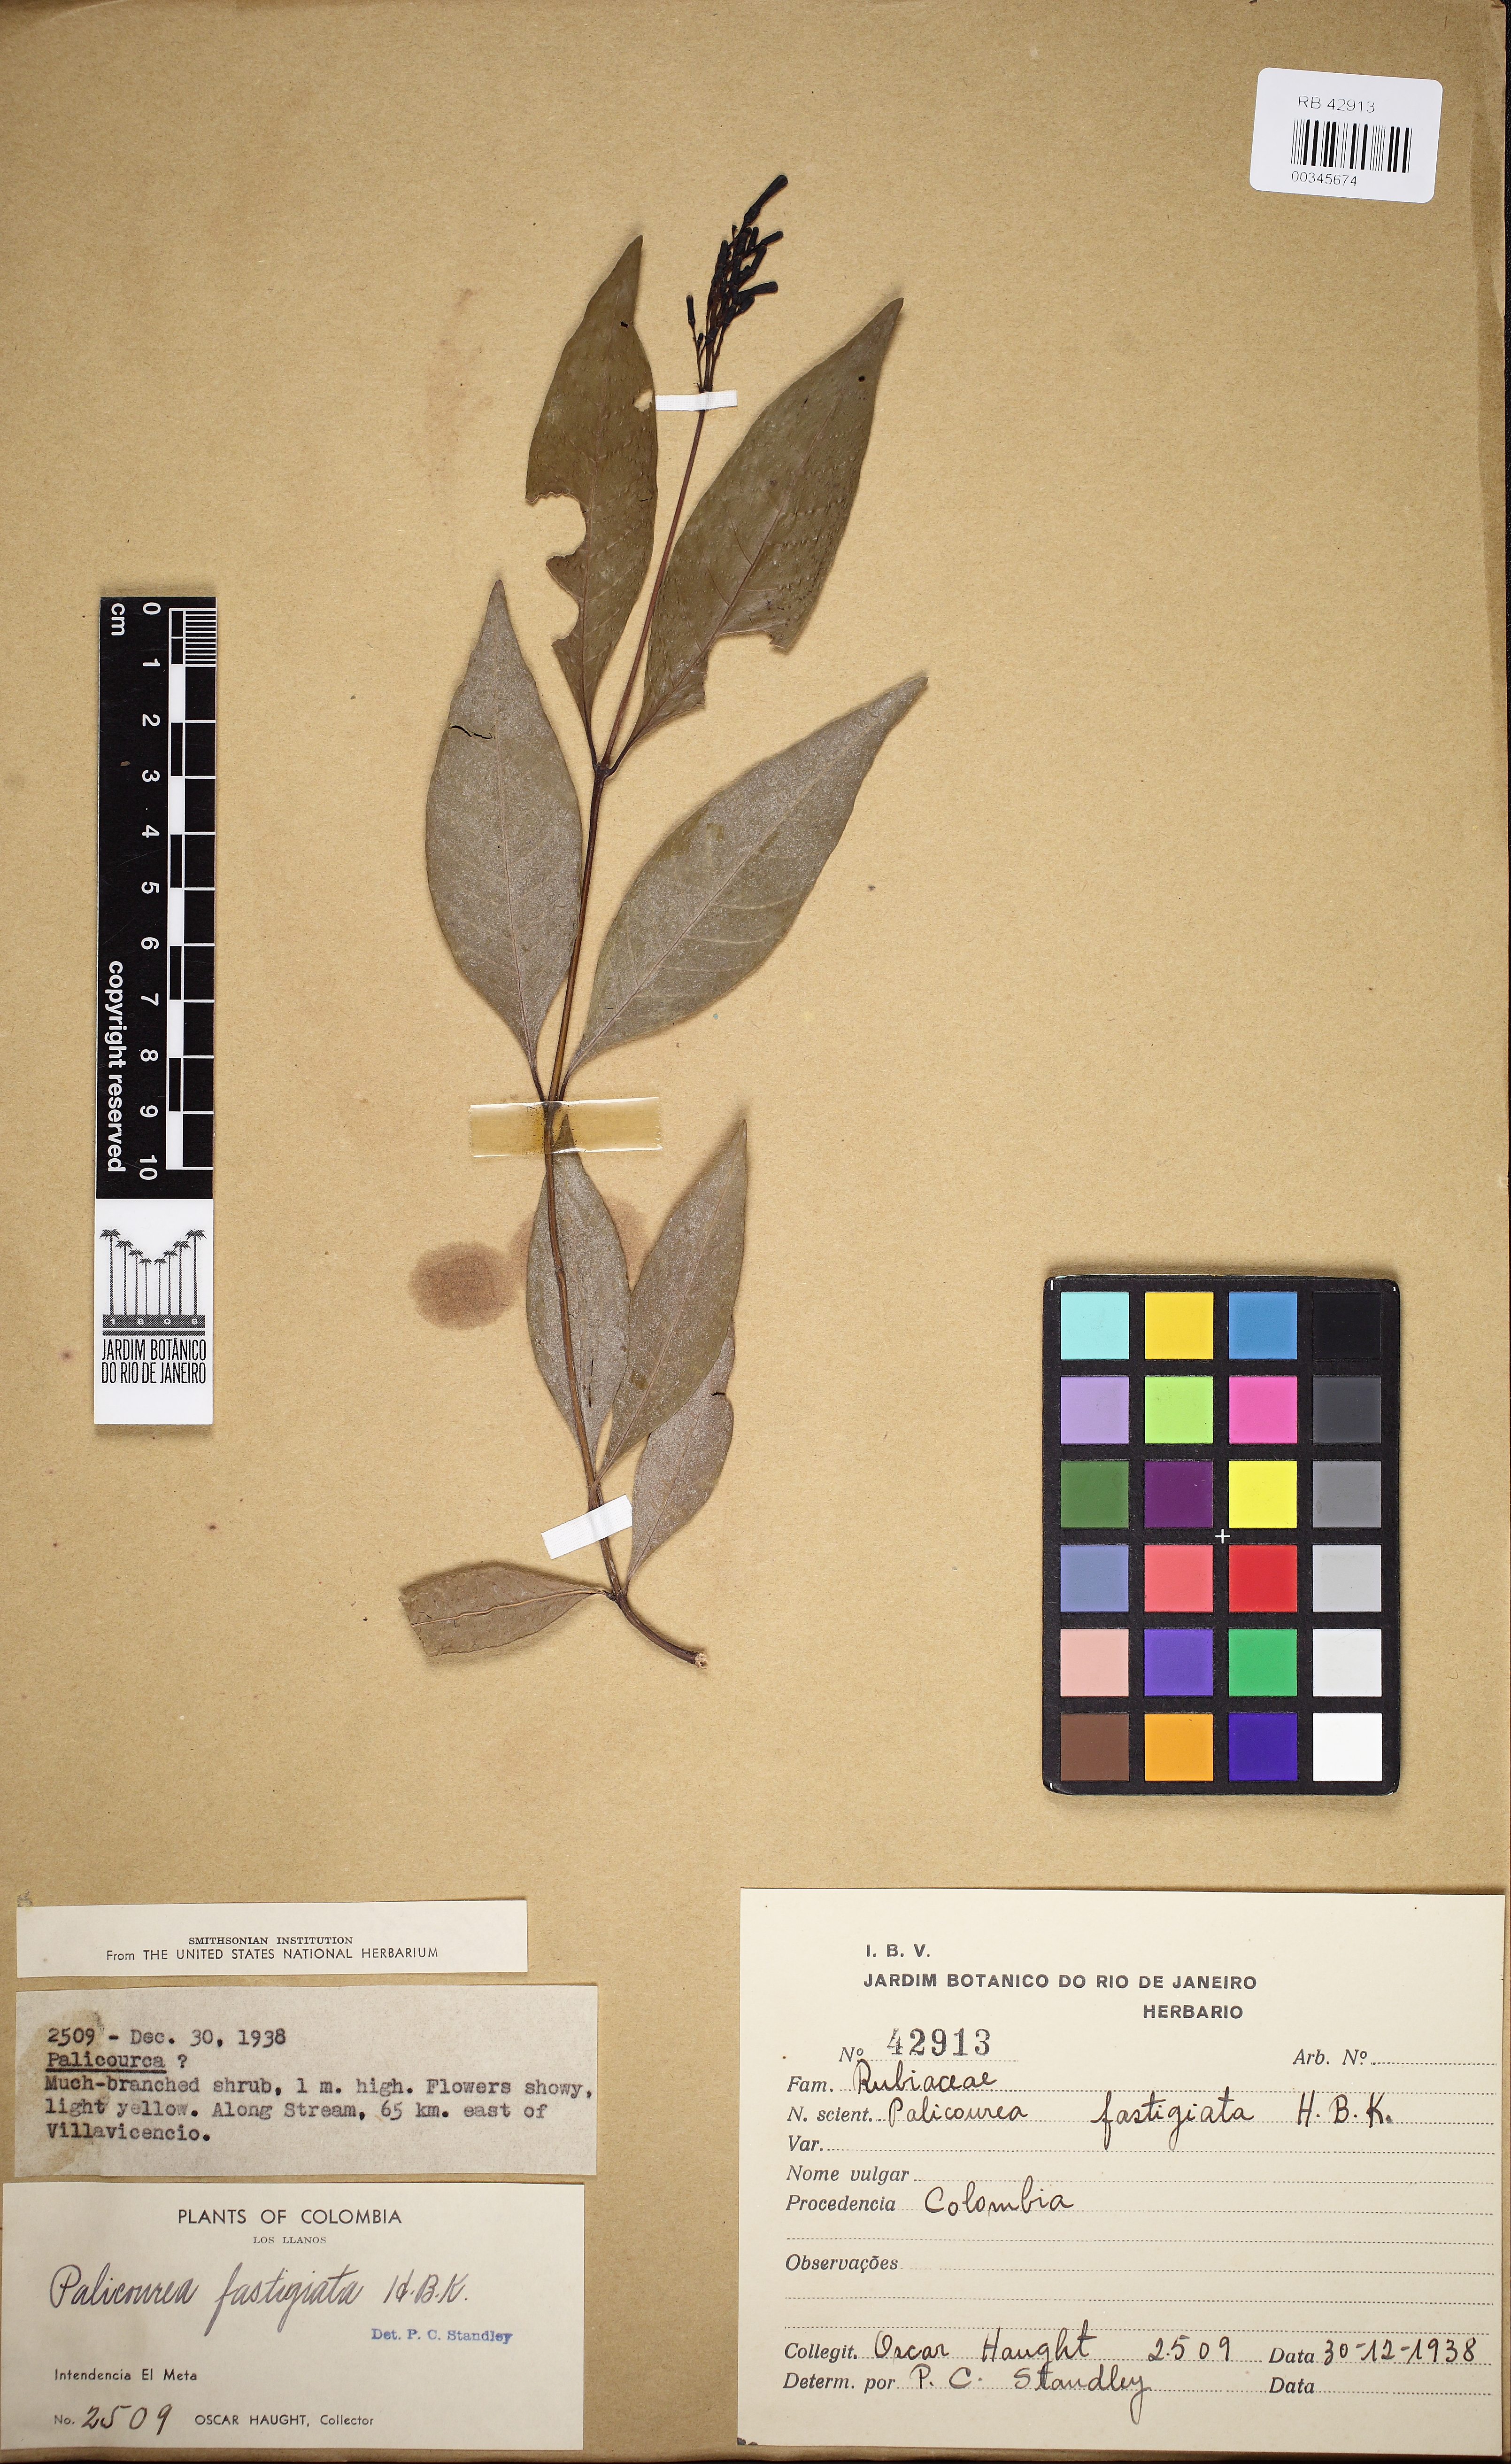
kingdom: Plantae
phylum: Tracheophyta
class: Magnoliopsida
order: Gentianales
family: Rubiaceae
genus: Palicourea
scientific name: Palicourea fastigiata
